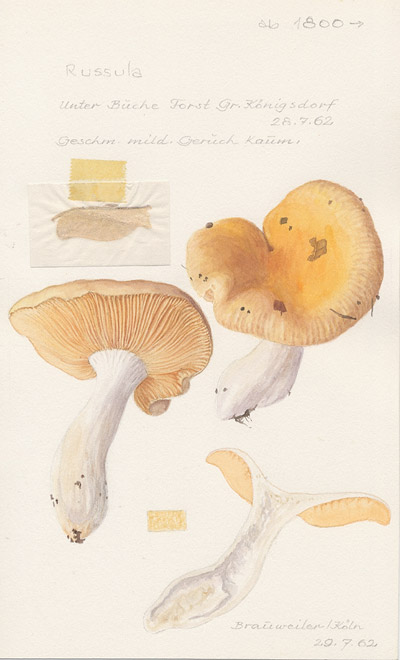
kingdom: Fungi
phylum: Basidiomycota
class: Agaricomycetes
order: Russulales
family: Russulaceae
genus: Russula
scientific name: Russula risigallina
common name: Golden brittlegill
